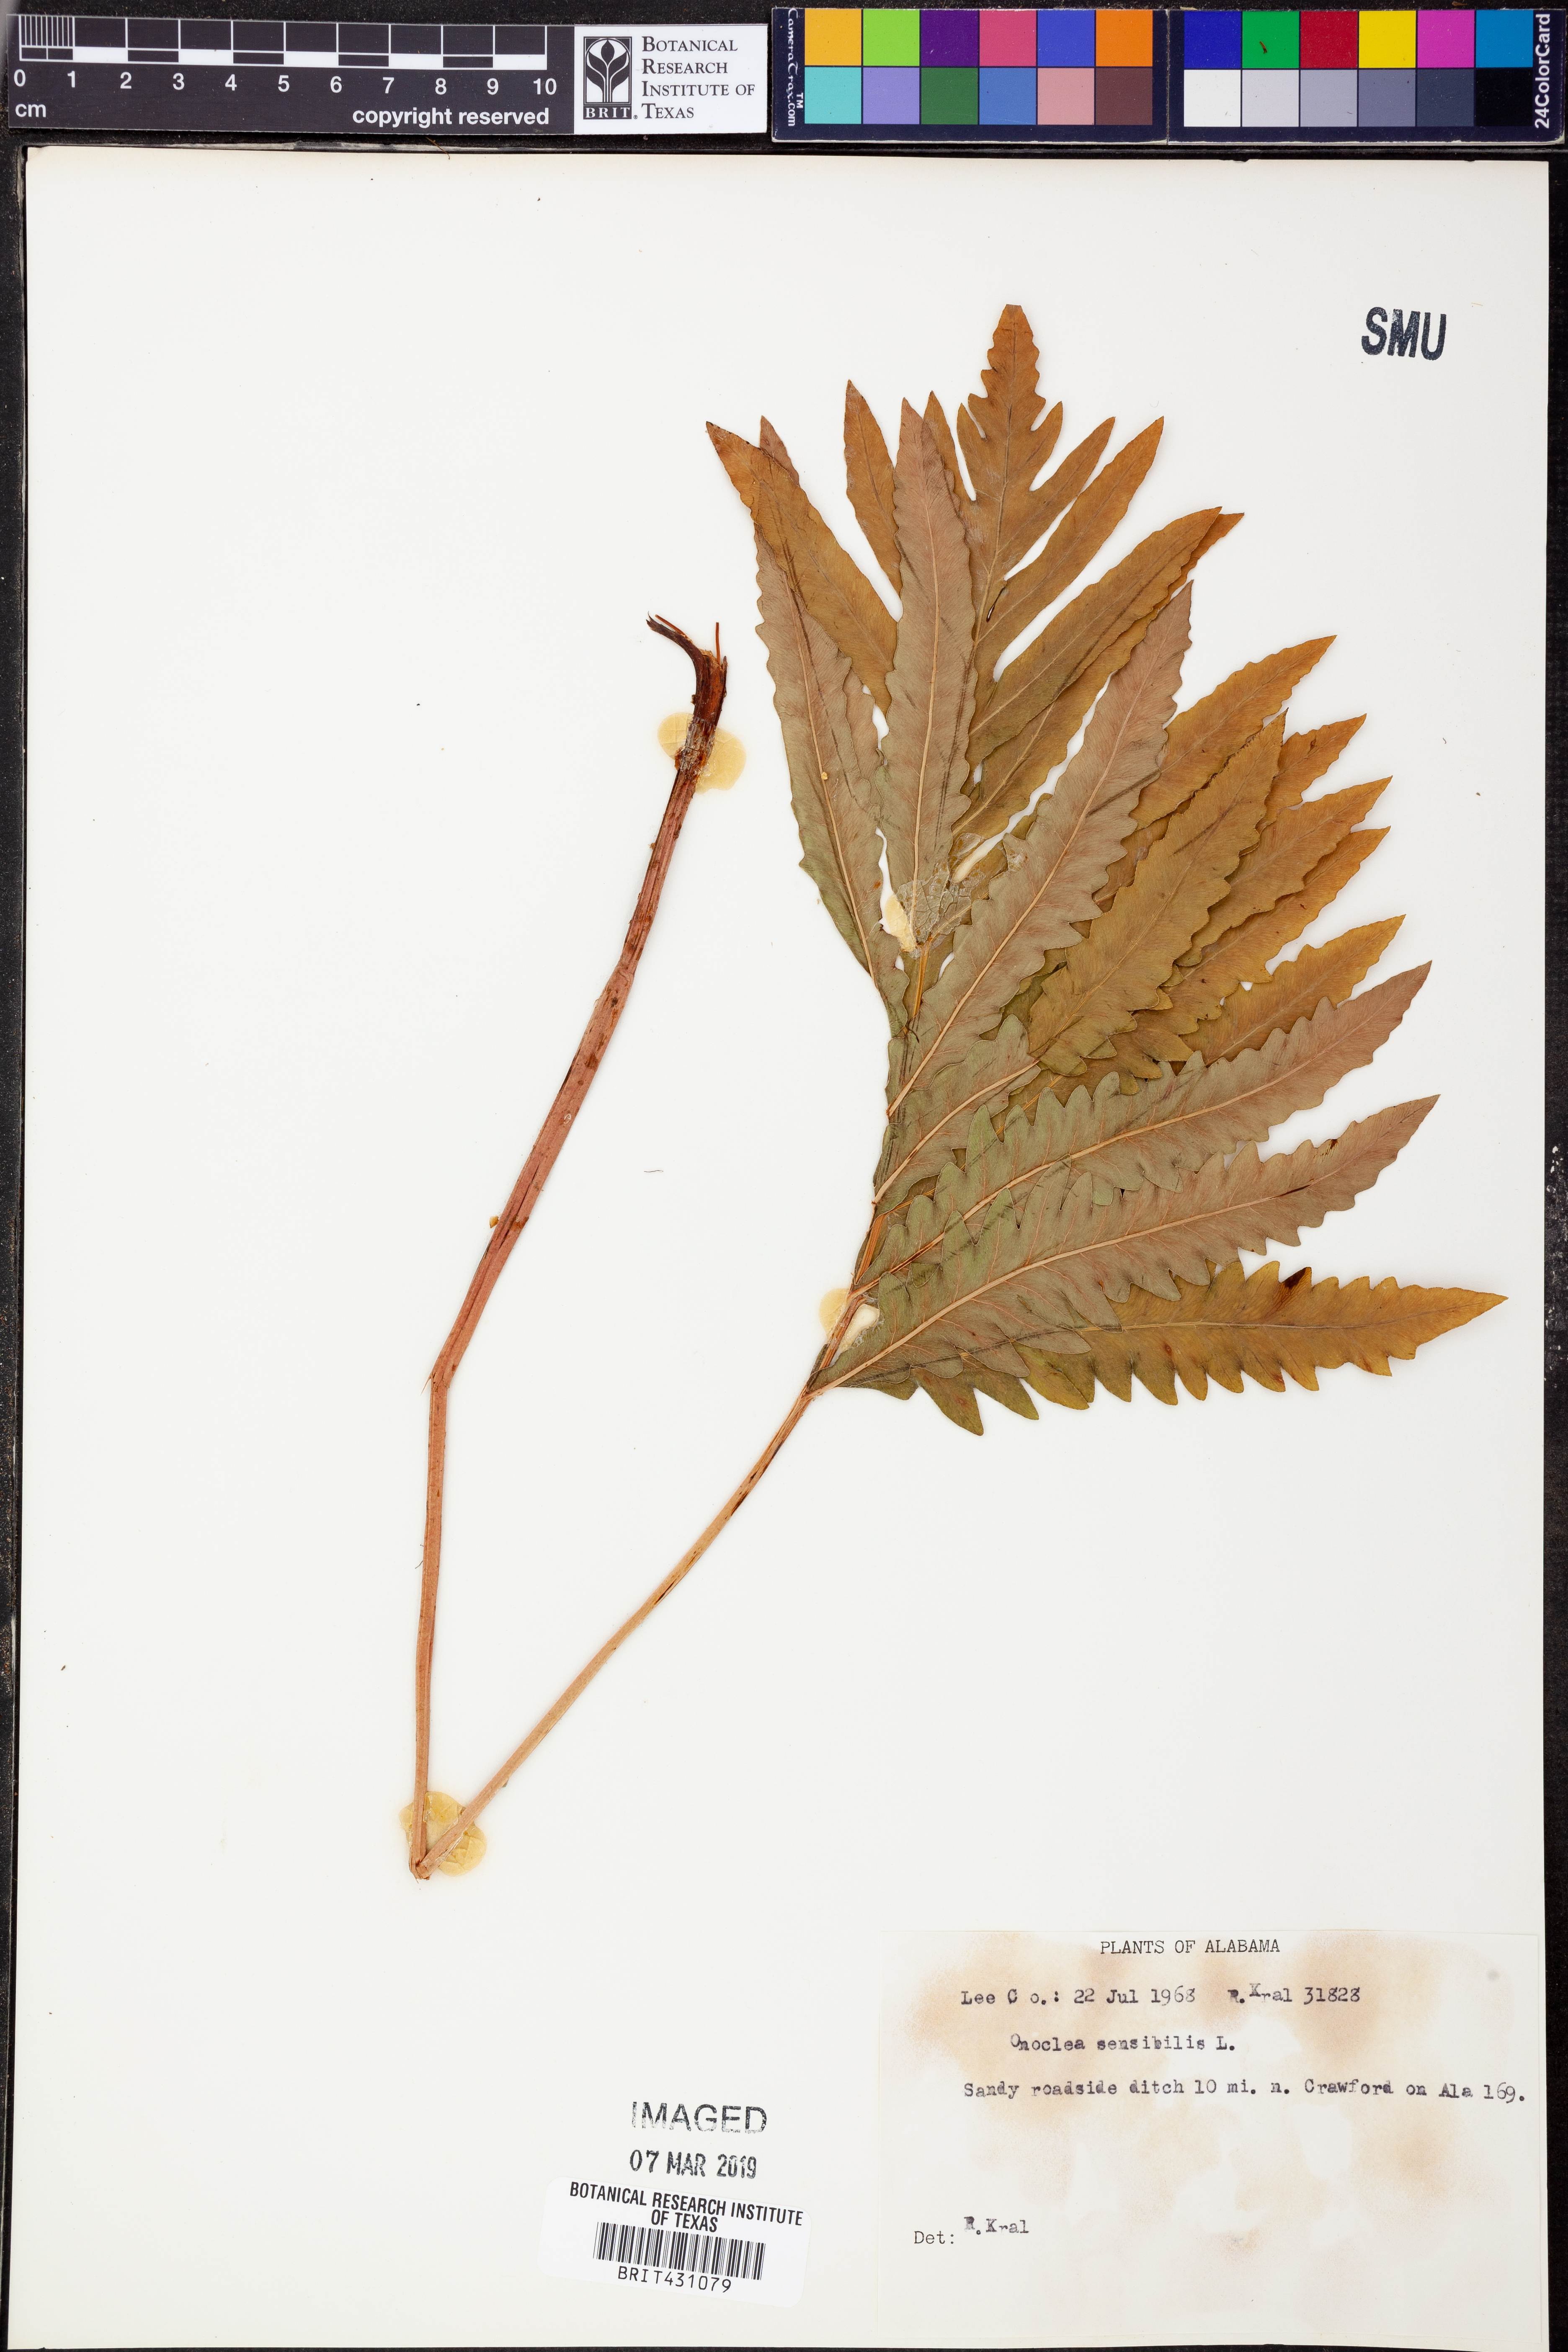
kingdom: Plantae
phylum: Tracheophyta
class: Polypodiopsida
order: Polypodiales
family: Onocleaceae
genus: Onoclea
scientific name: Onoclea sensibilis
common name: Sensitive fern
